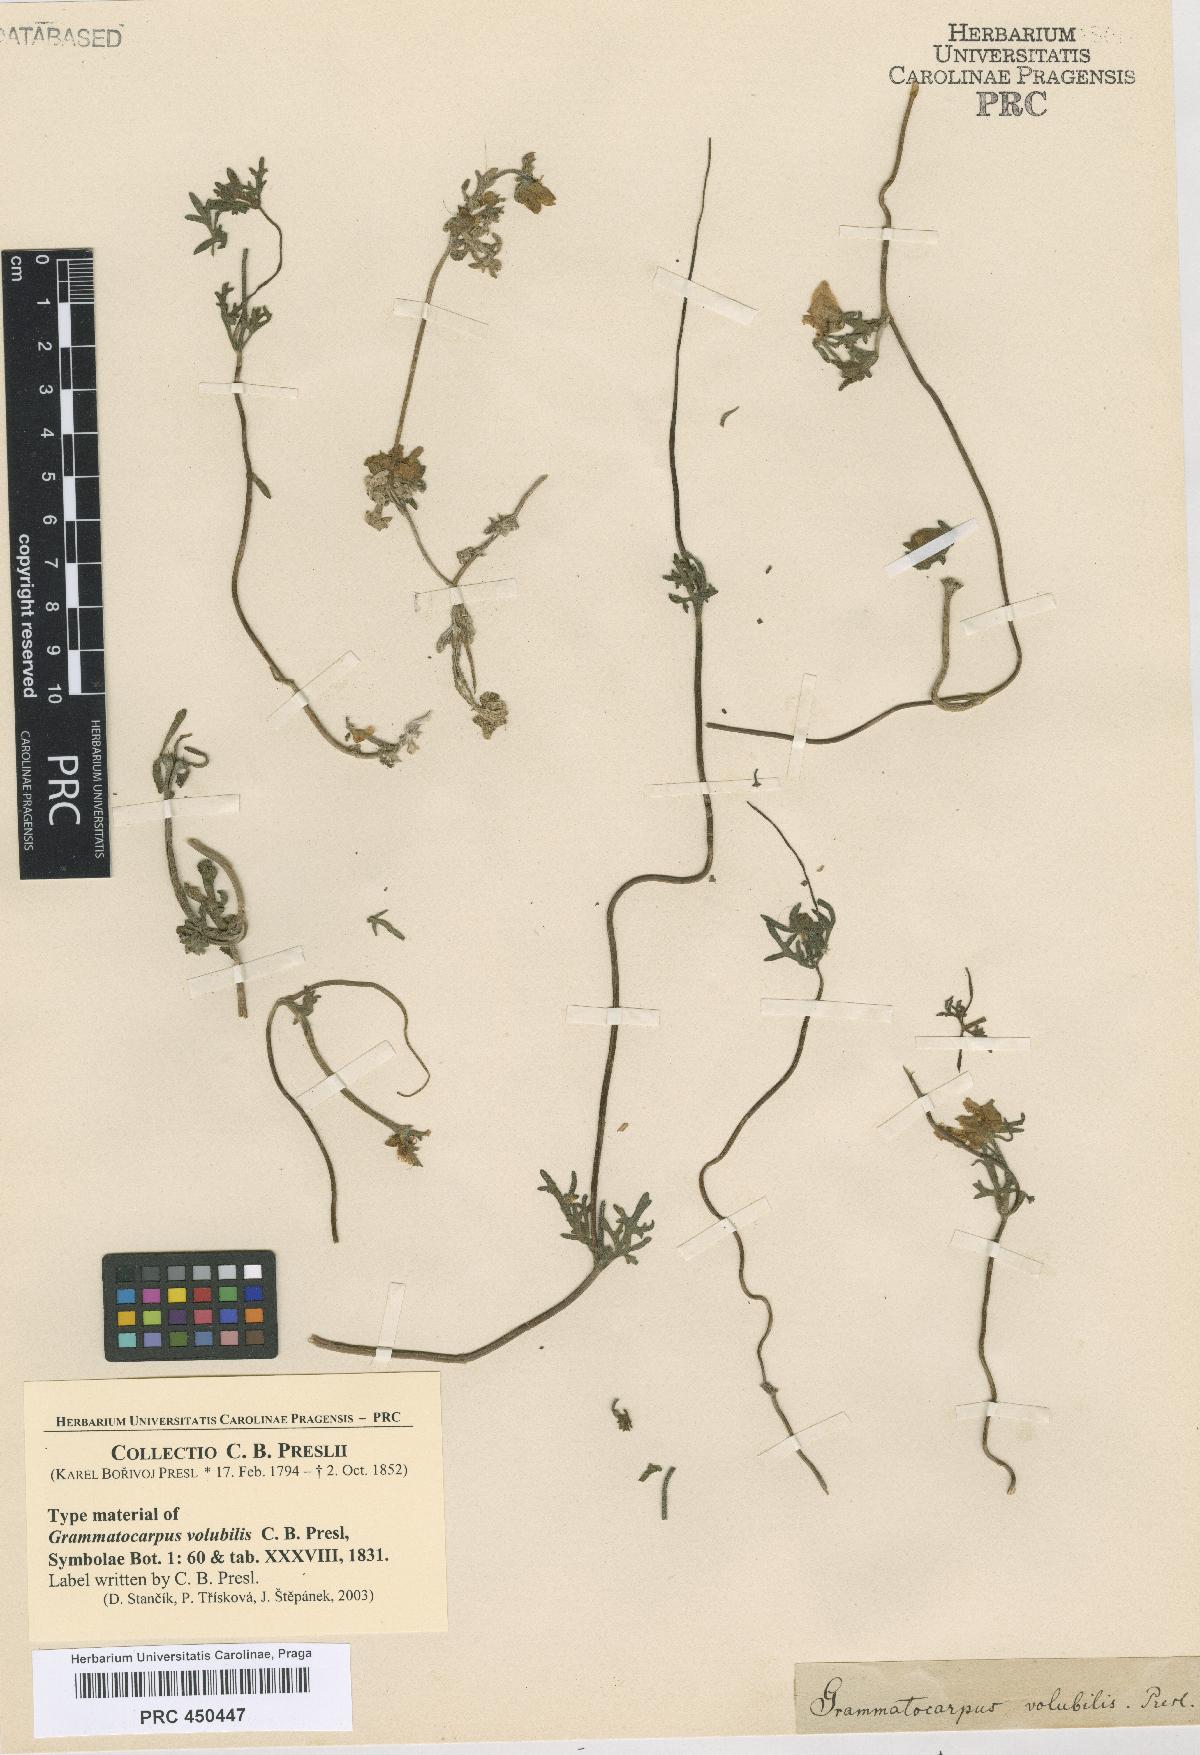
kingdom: Plantae
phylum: Tracheophyta
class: Magnoliopsida
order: Cornales
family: Loasaceae
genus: Scyphanthus
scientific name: Scyphanthus elegans
